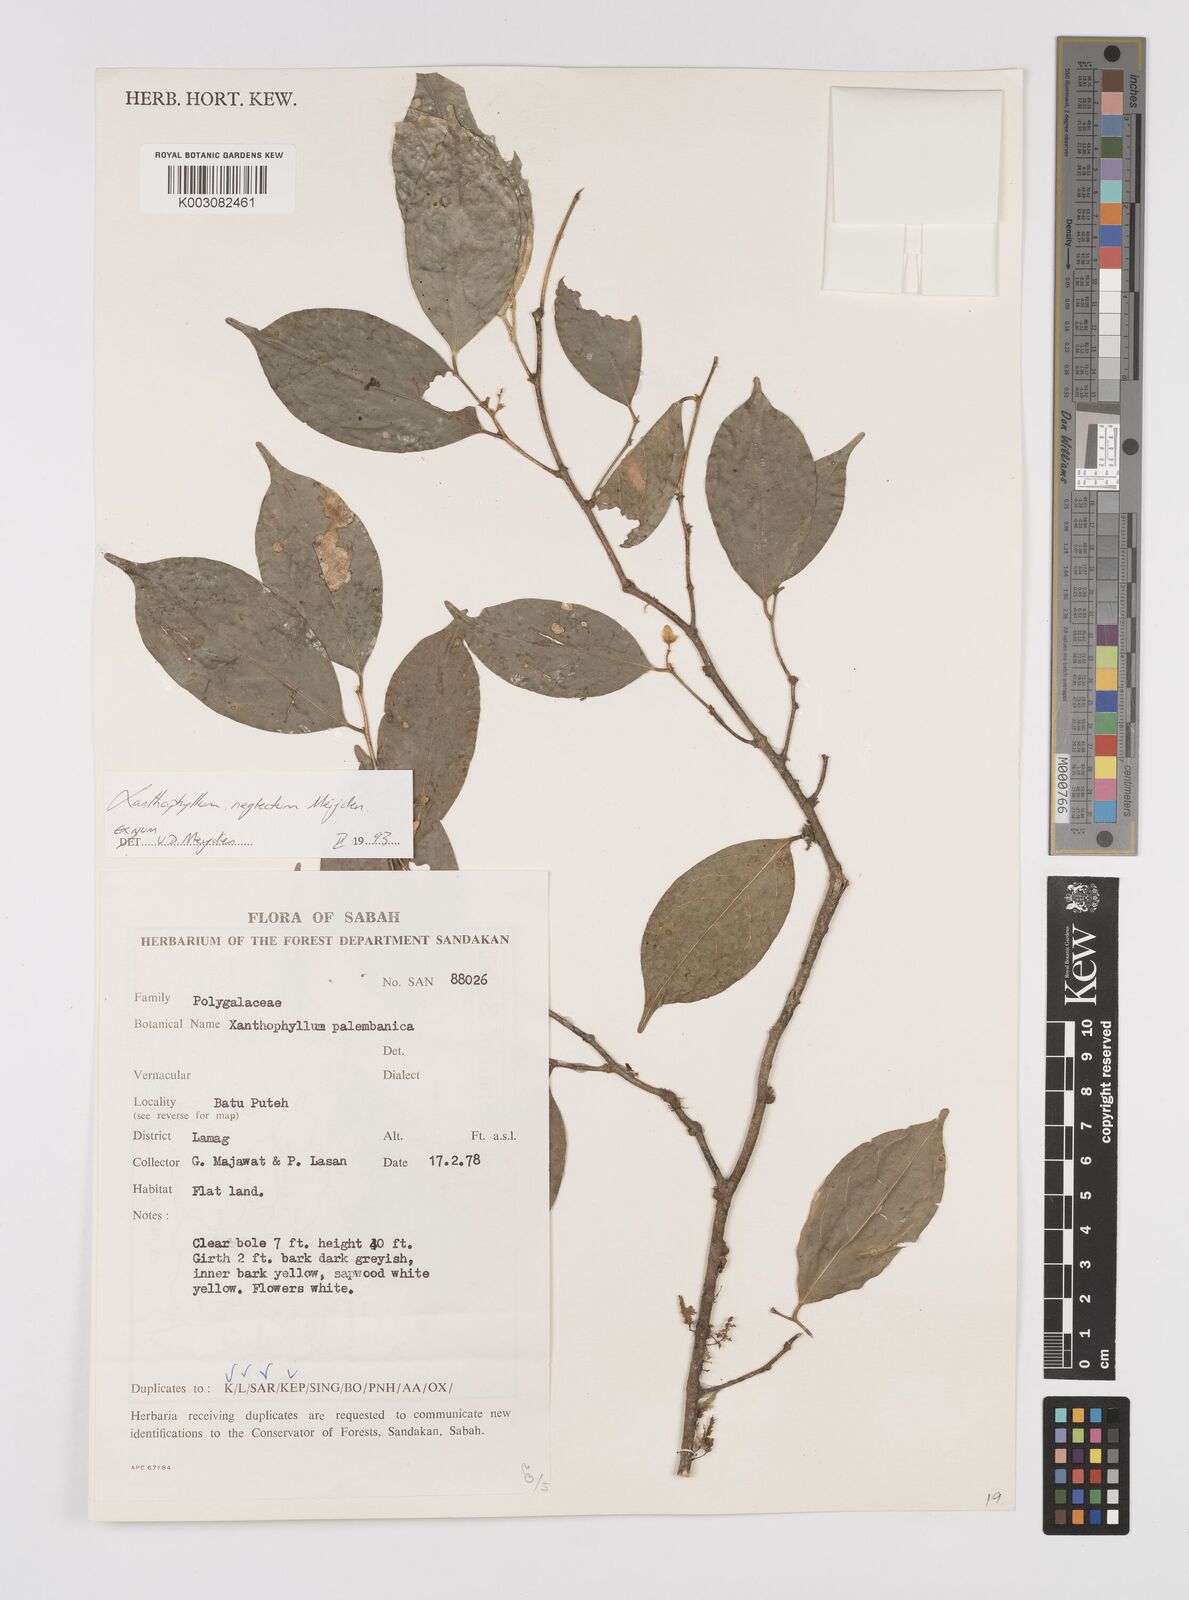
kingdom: Plantae
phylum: Tracheophyta
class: Magnoliopsida
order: Fabales
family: Polygalaceae
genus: Xanthophyllum
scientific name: Xanthophyllum neglectum
